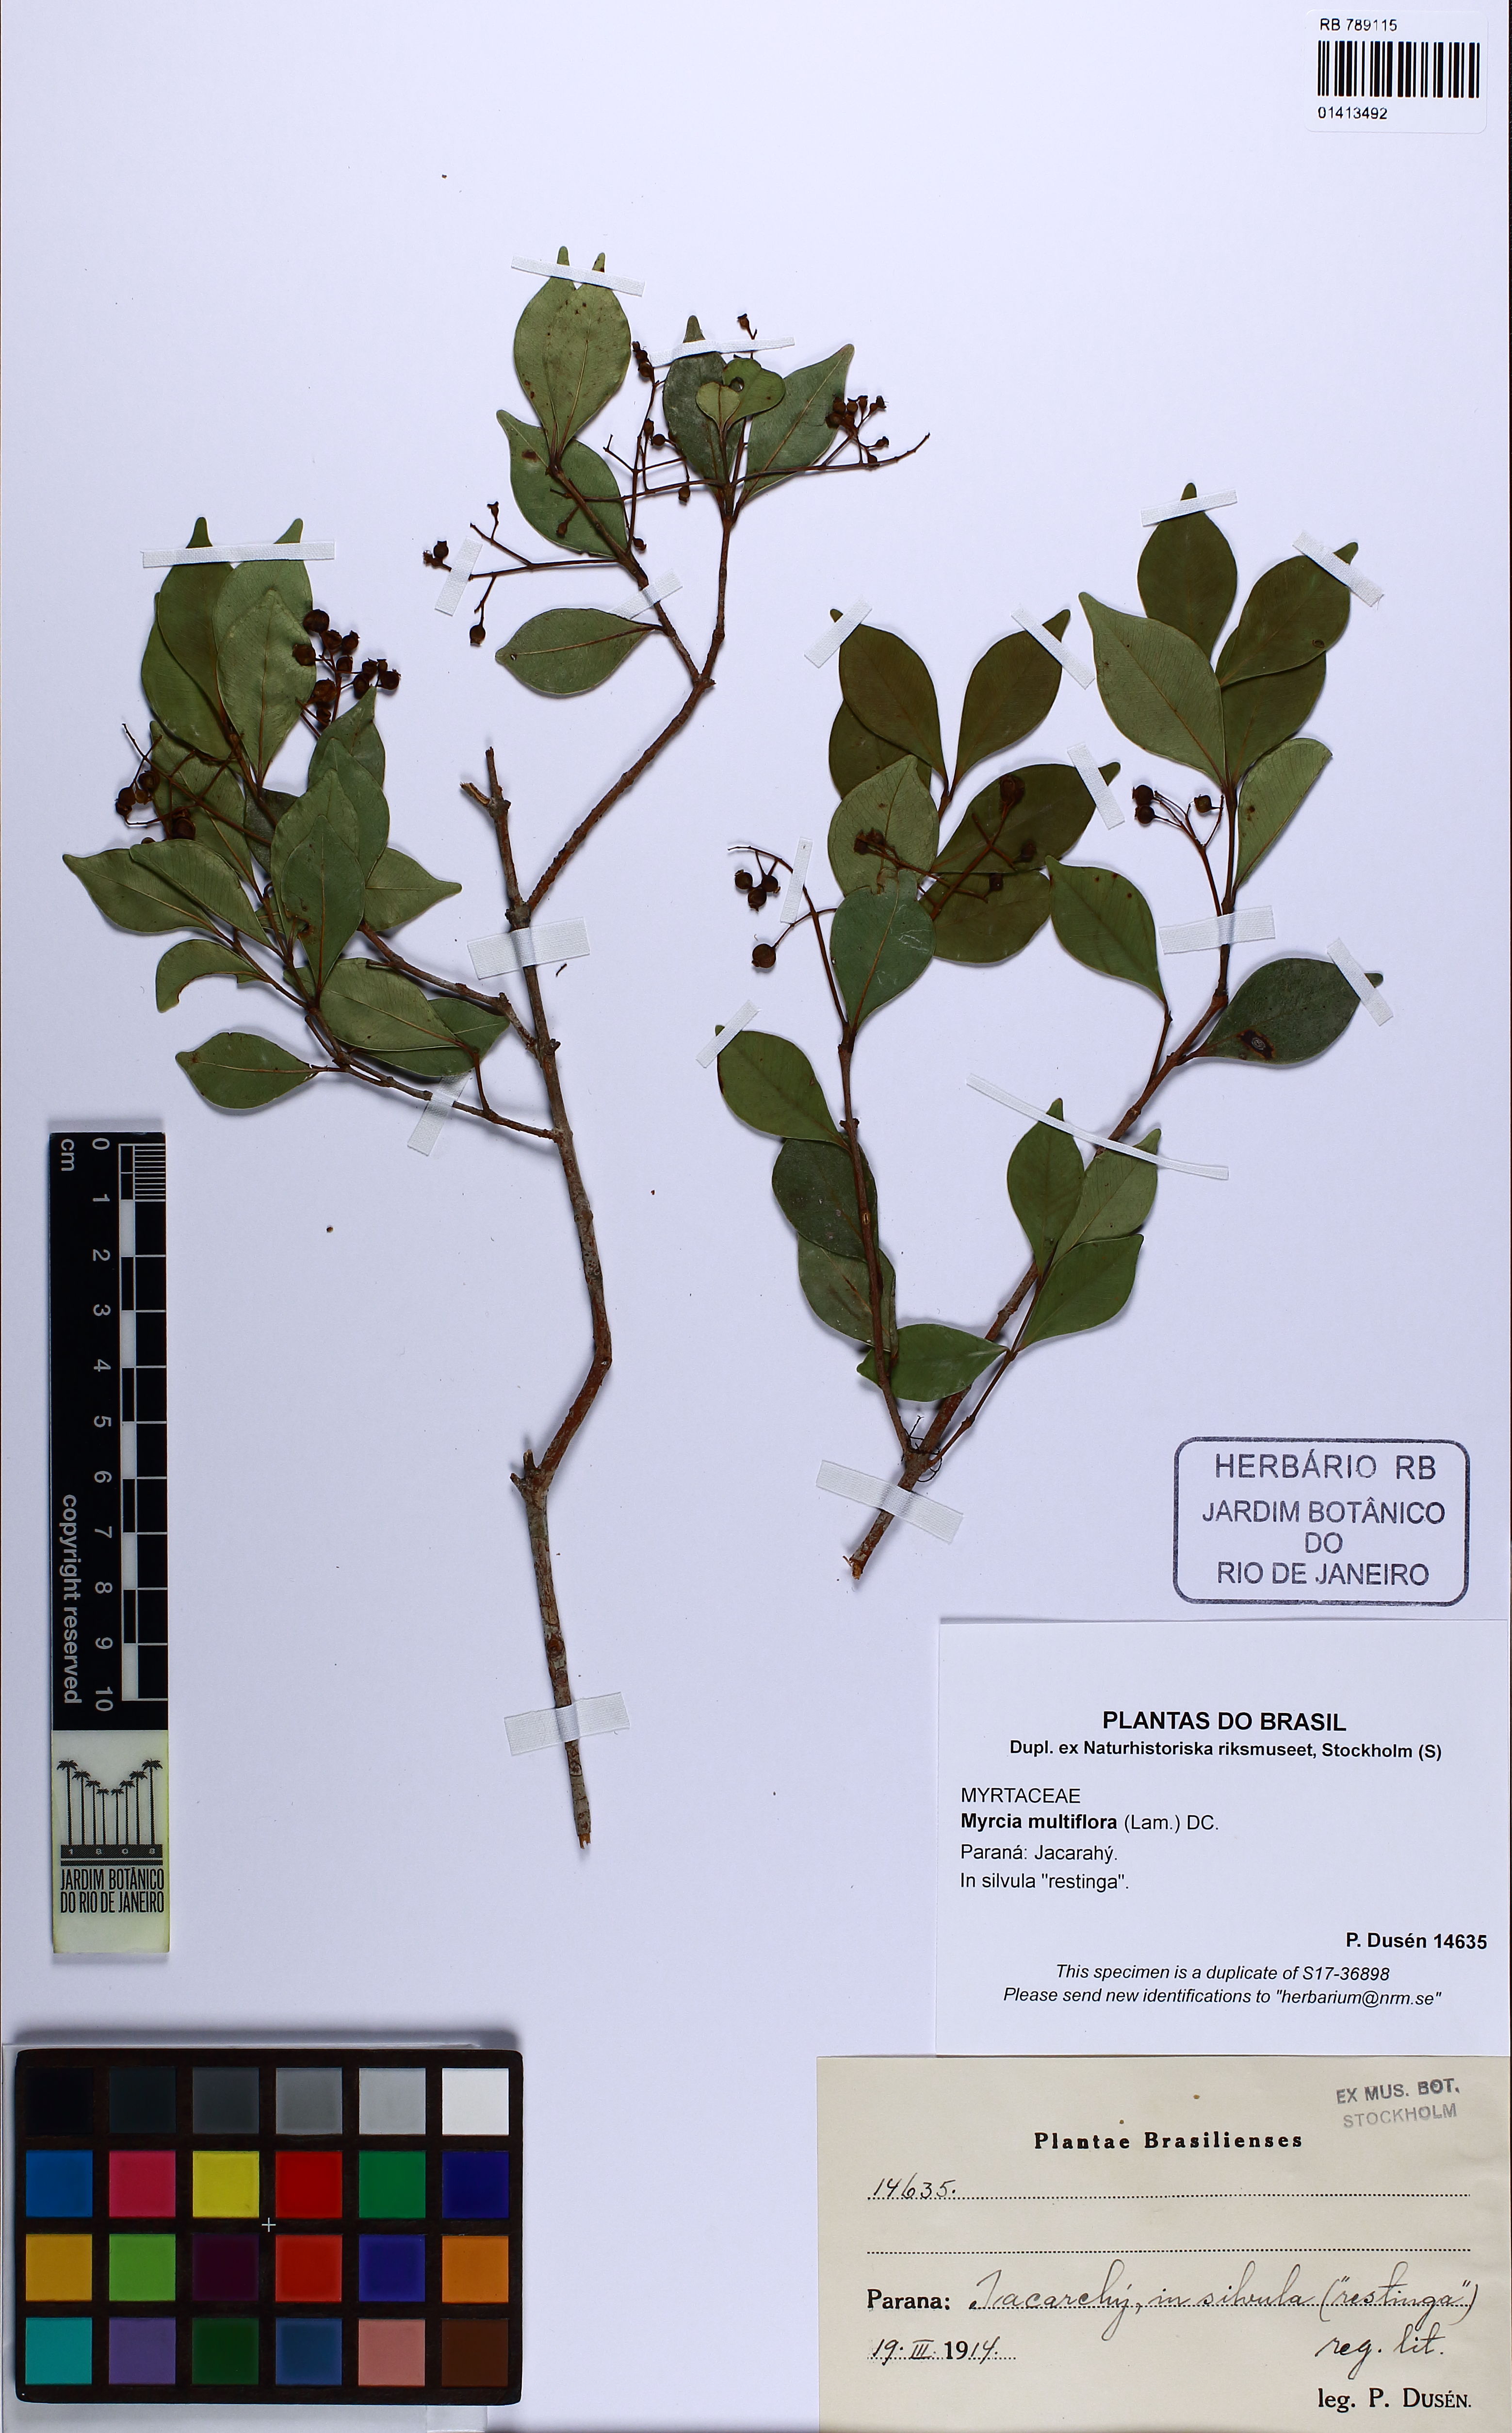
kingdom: Plantae
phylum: Tracheophyta
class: Magnoliopsida
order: Myrtales
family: Myrtaceae
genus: Myrcia
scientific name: Myrcia multiflora
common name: Pedra hume
